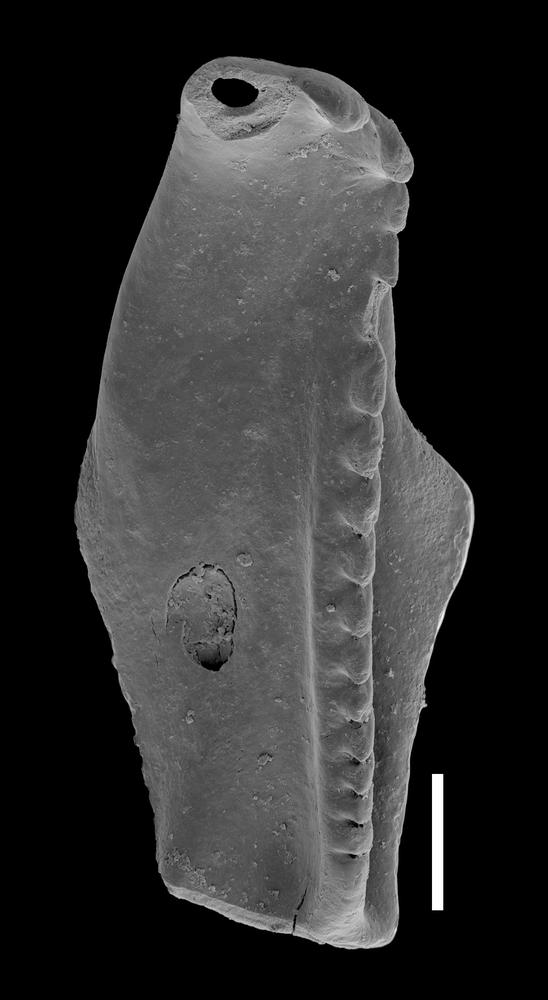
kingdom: Animalia
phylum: Annelida
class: Polychaeta
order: Eunicida
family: Ramphoprionidae
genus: Protarabellites
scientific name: Protarabellites rectangularis
